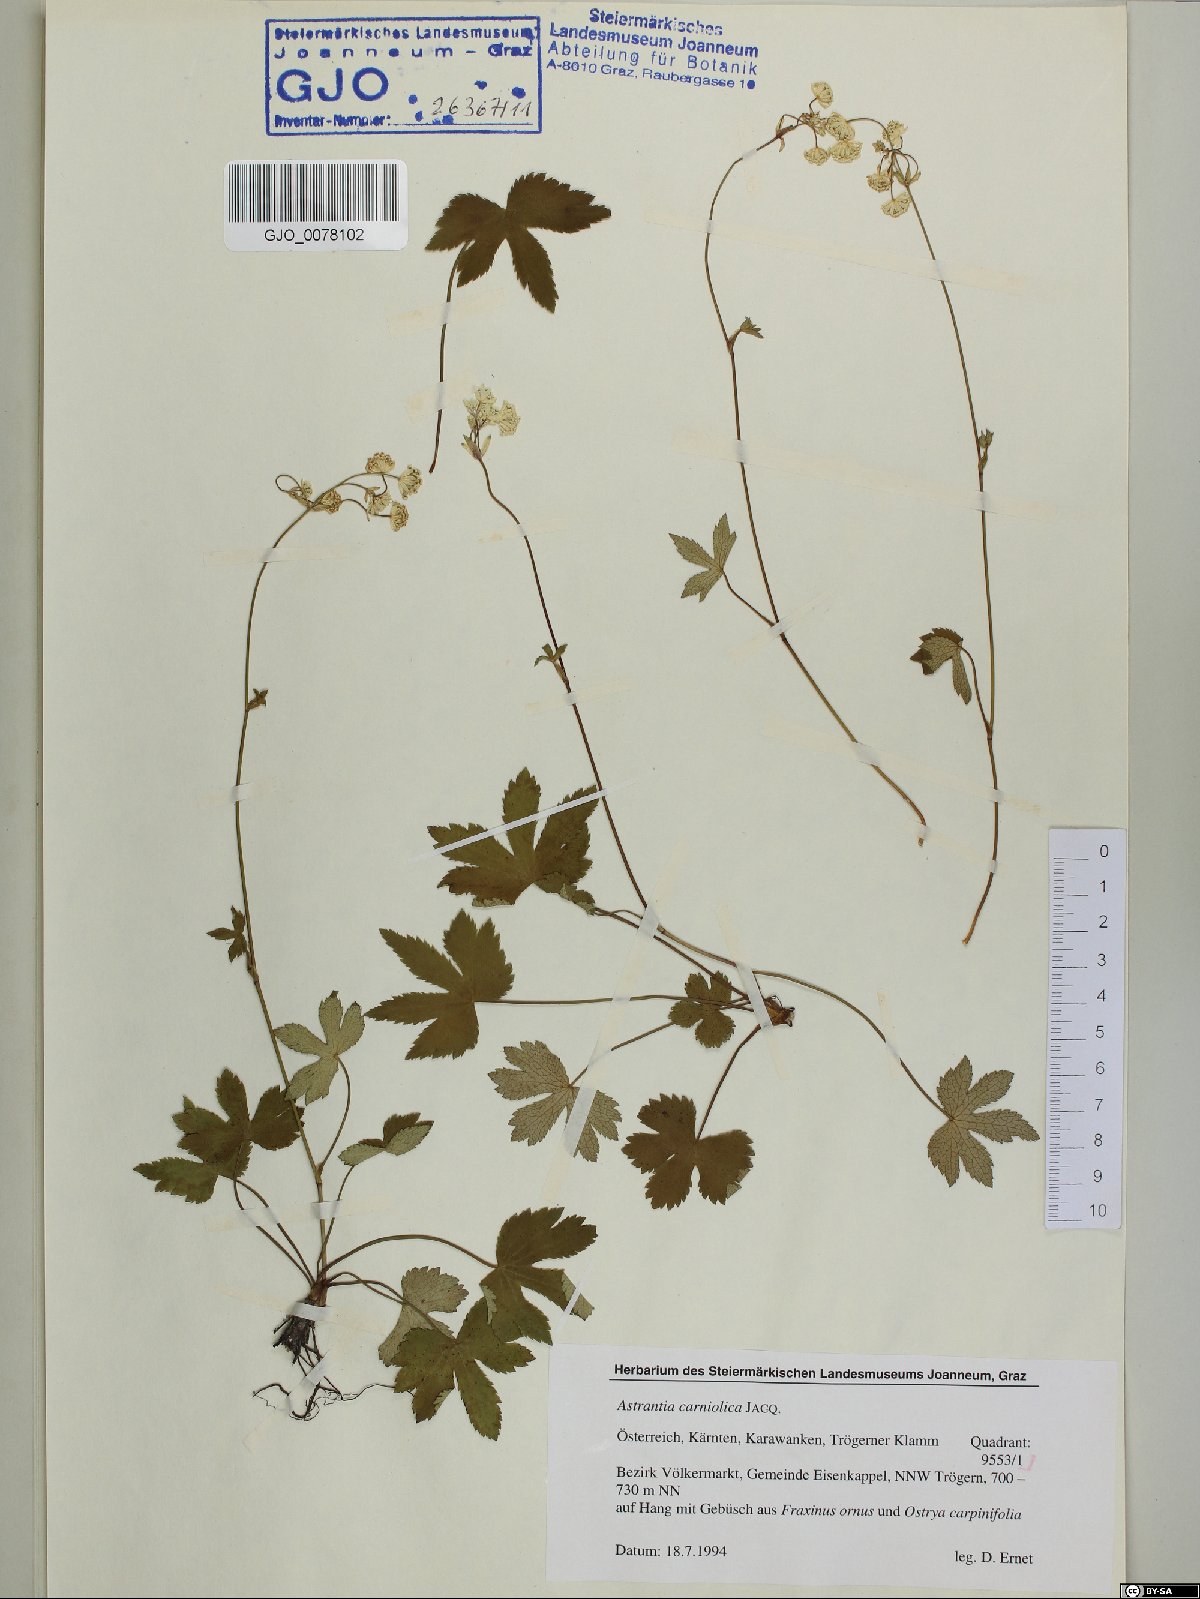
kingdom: Plantae
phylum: Tracheophyta
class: Magnoliopsida
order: Apiales
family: Apiaceae
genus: Astrantia
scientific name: Astrantia carniolica
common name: Carnic masterwort
